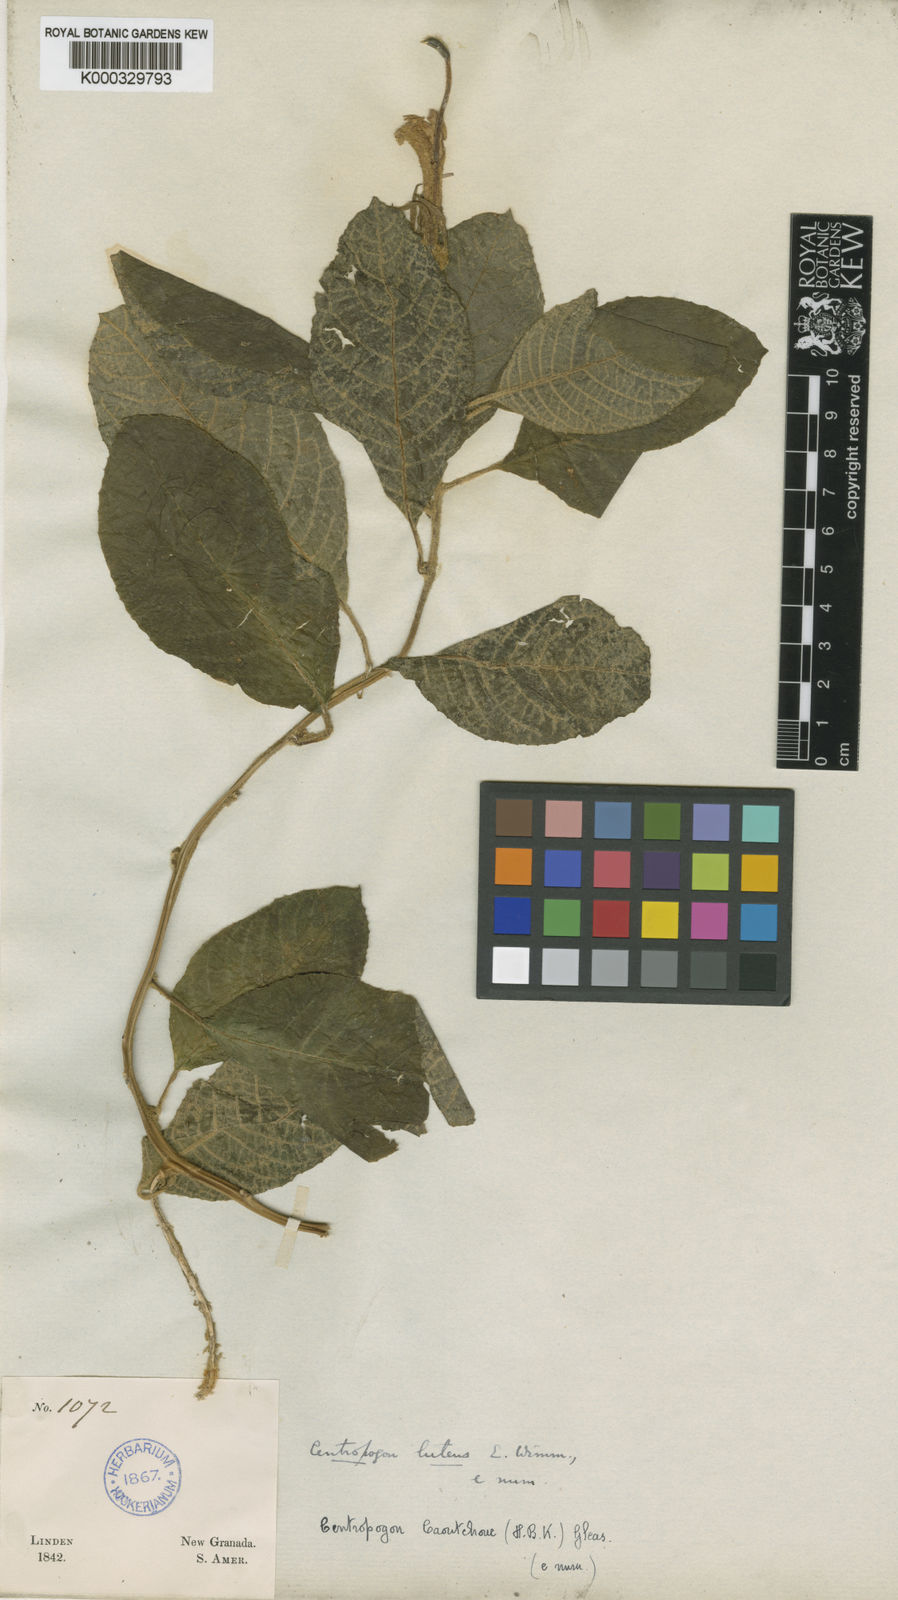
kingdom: Plantae
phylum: Tracheophyta
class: Magnoliopsida
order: Asterales
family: Campanulaceae
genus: Centropogon
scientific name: Centropogon luteus
